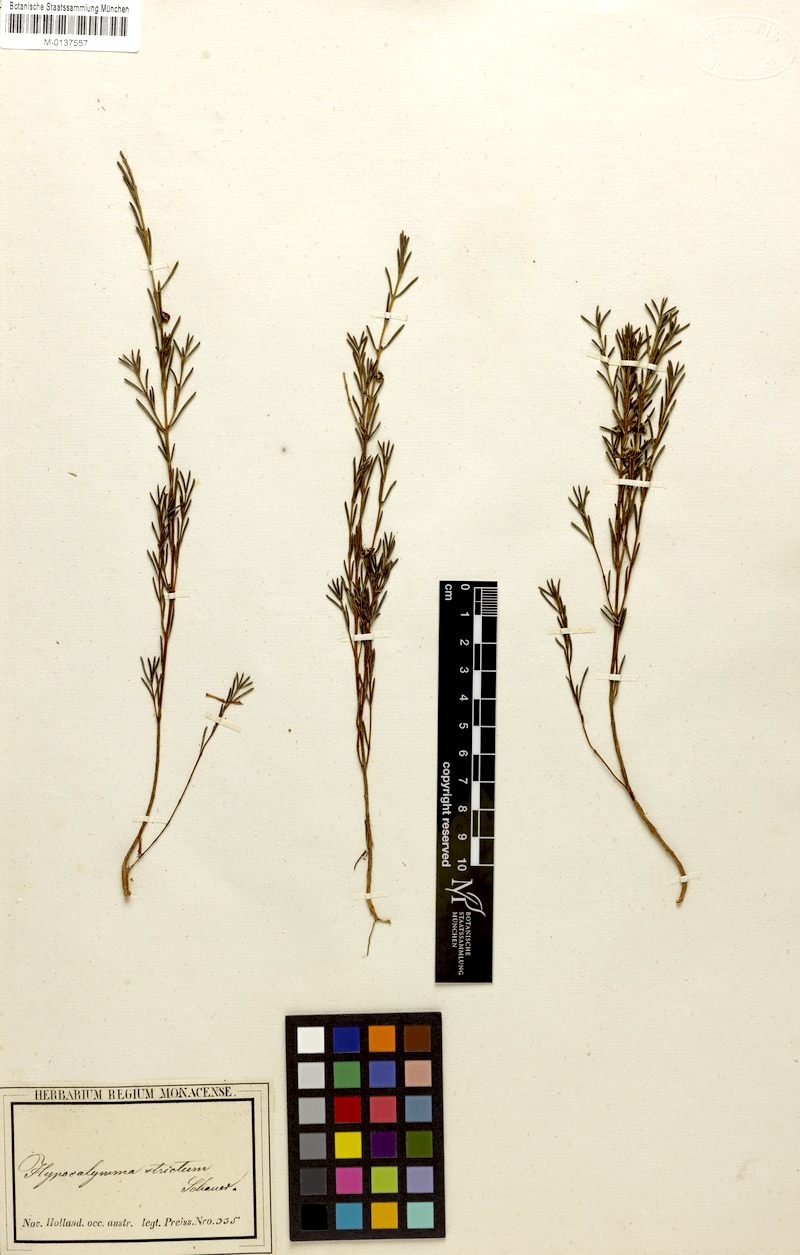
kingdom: Plantae
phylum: Tracheophyta
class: Magnoliopsida
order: Myrtales
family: Myrtaceae
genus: Hypocalymma
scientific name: Hypocalymma strictum
